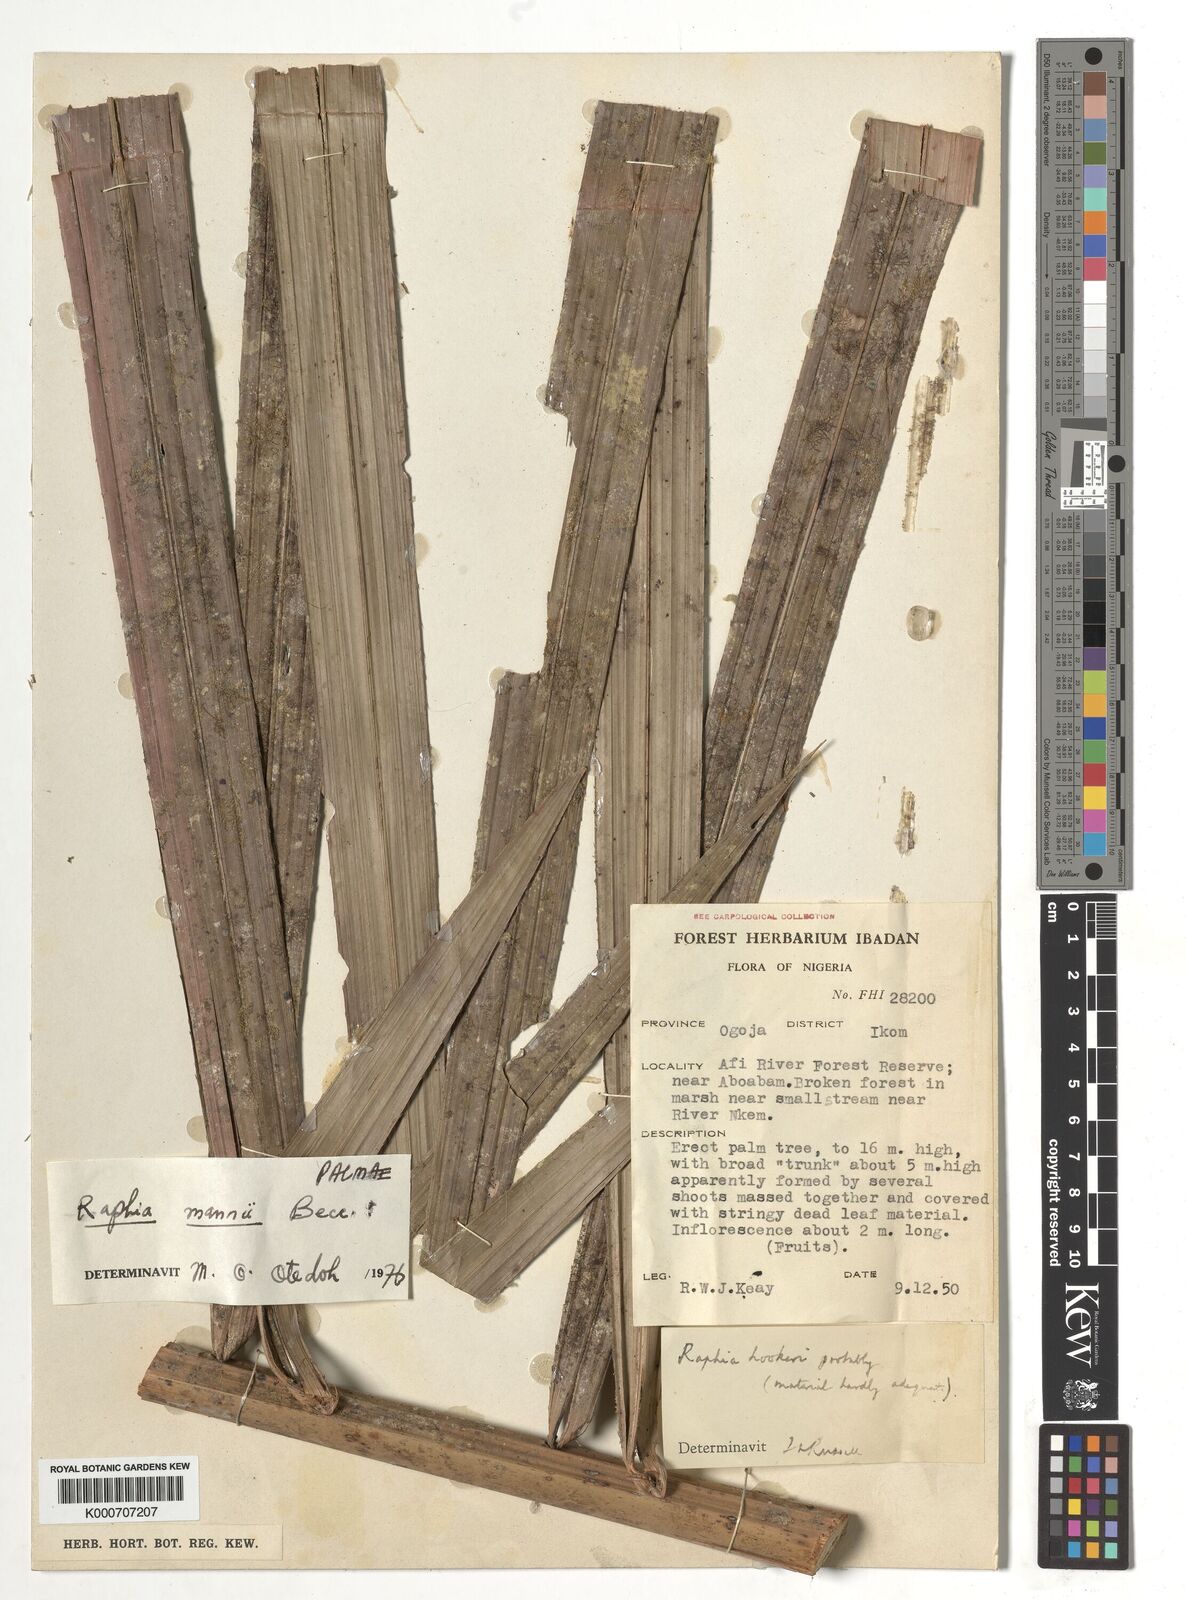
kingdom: Plantae
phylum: Tracheophyta
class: Liliopsida
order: Arecales
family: Arecaceae
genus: Raphia
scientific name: Raphia mannii
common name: Raphia palm
